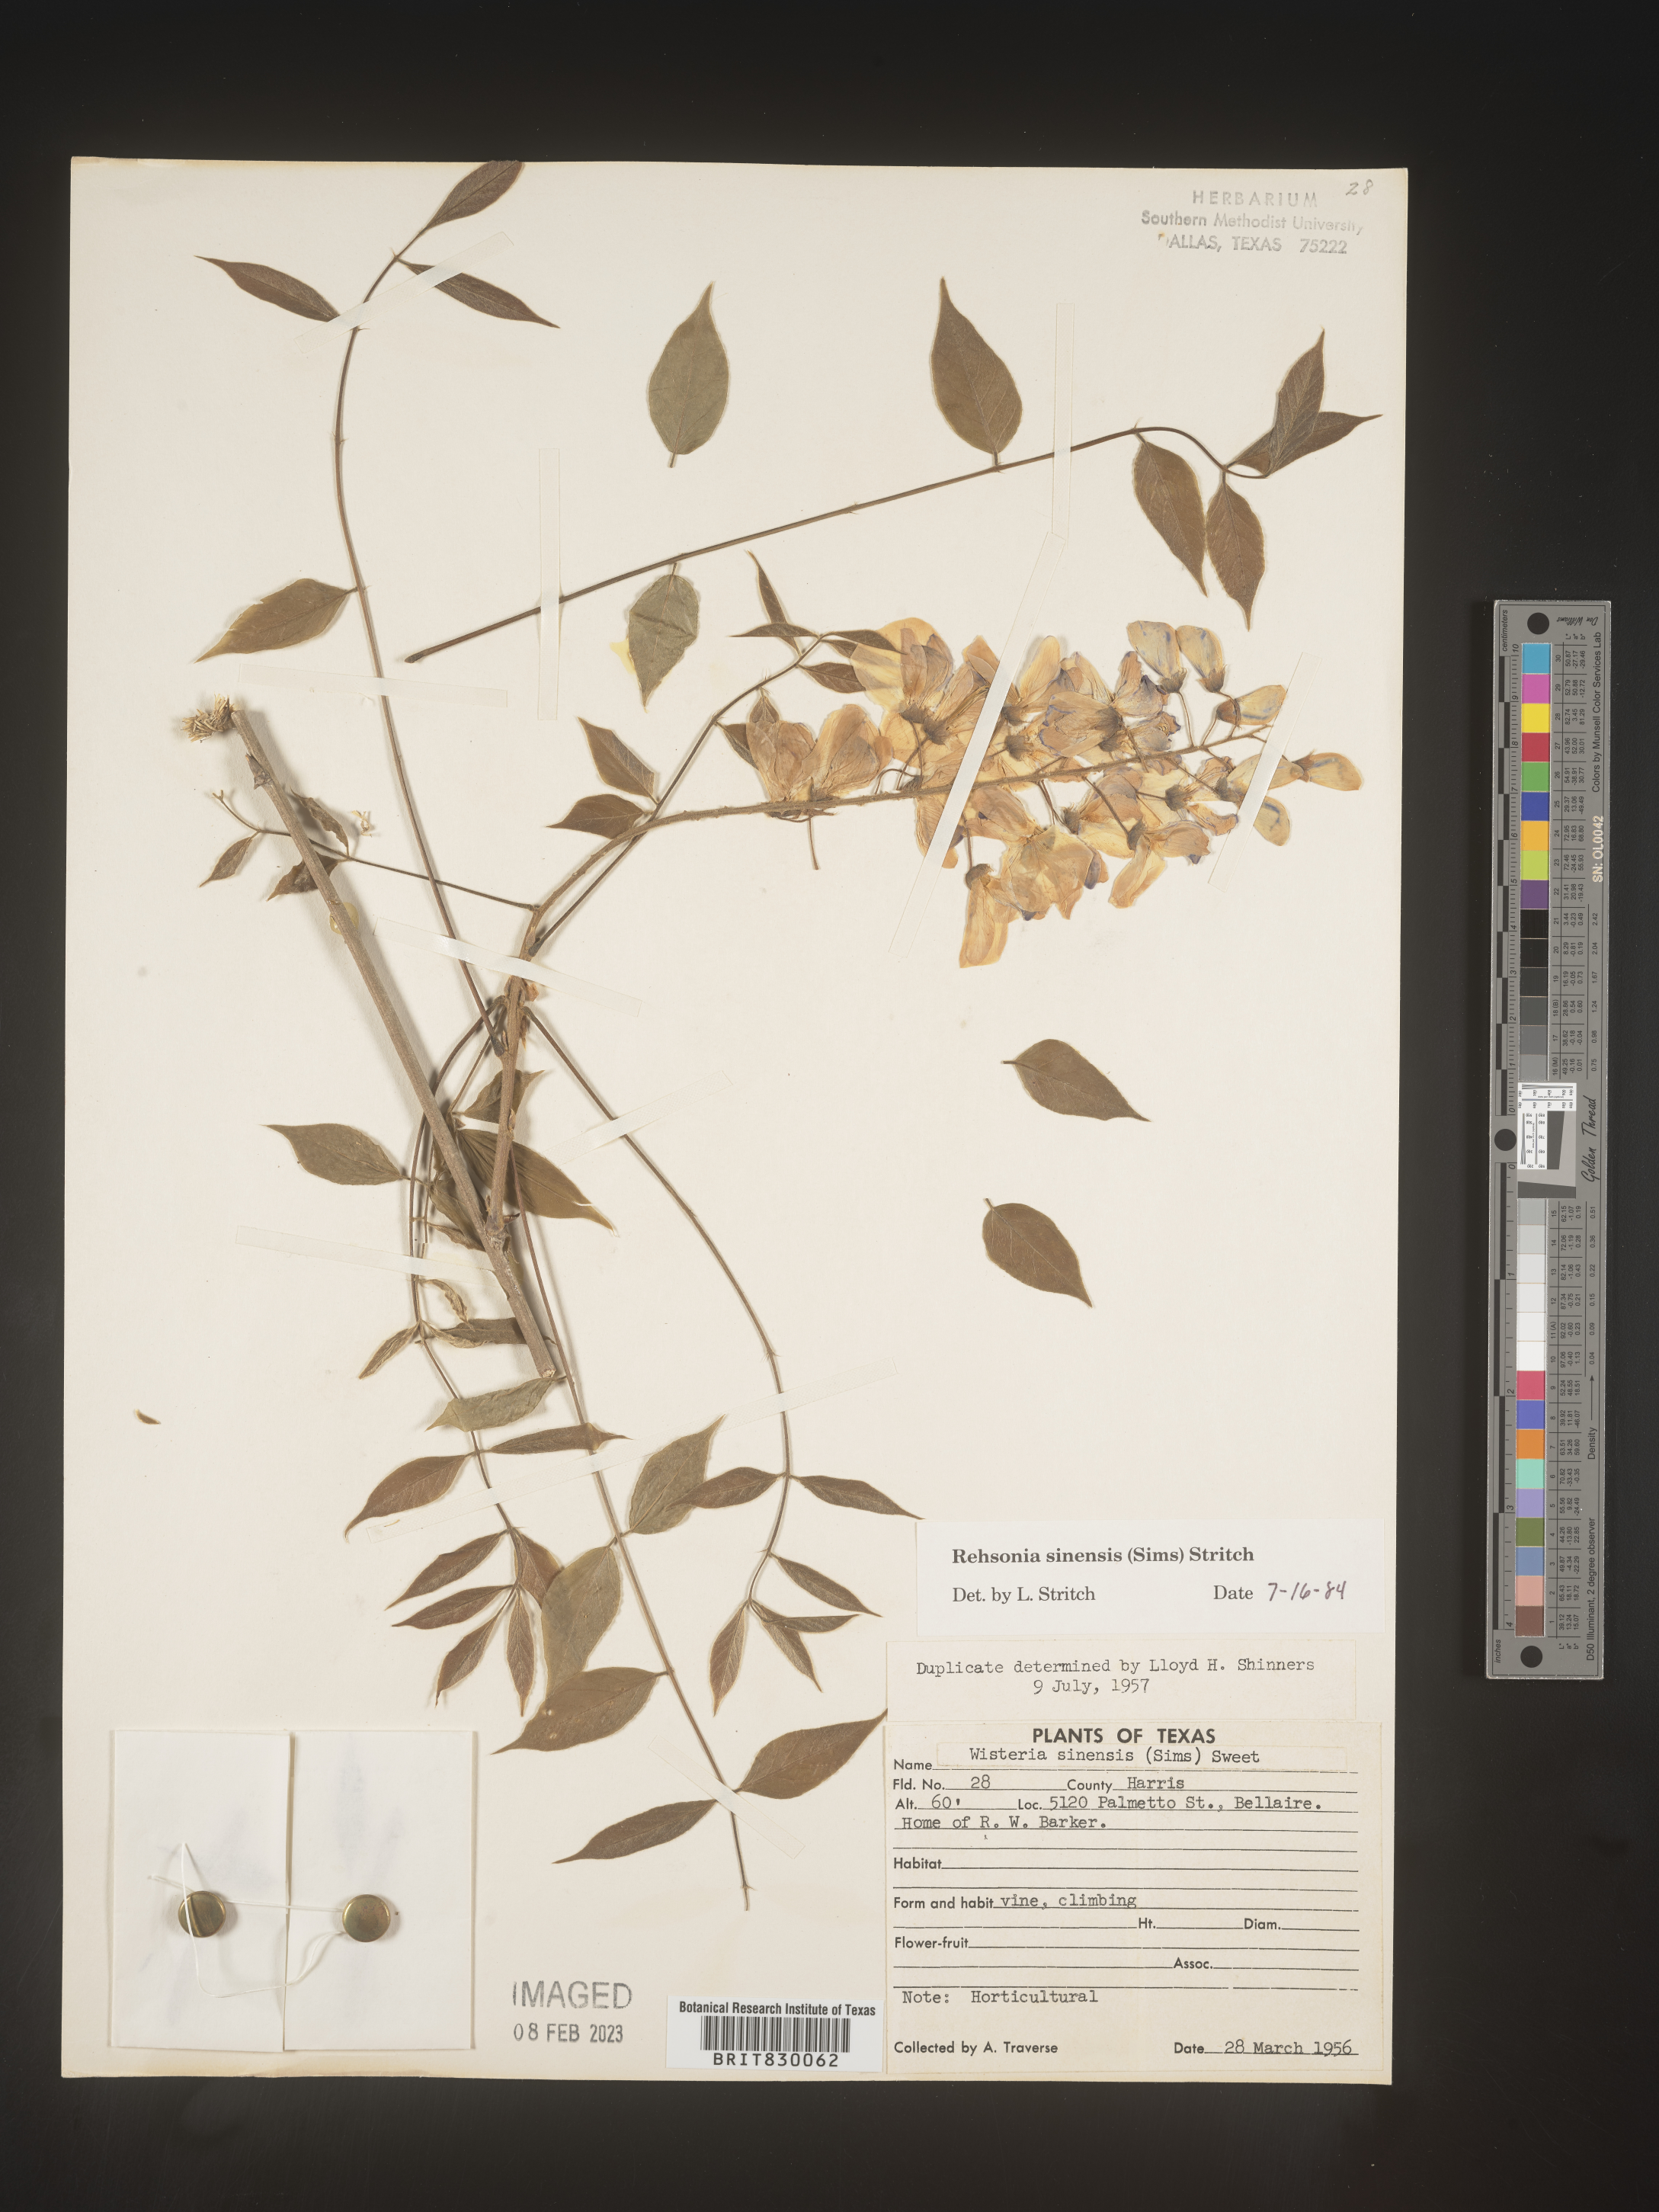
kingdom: Plantae
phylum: Tracheophyta
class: Magnoliopsida
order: Fabales
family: Fabaceae
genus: Wisteria
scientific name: Wisteria
